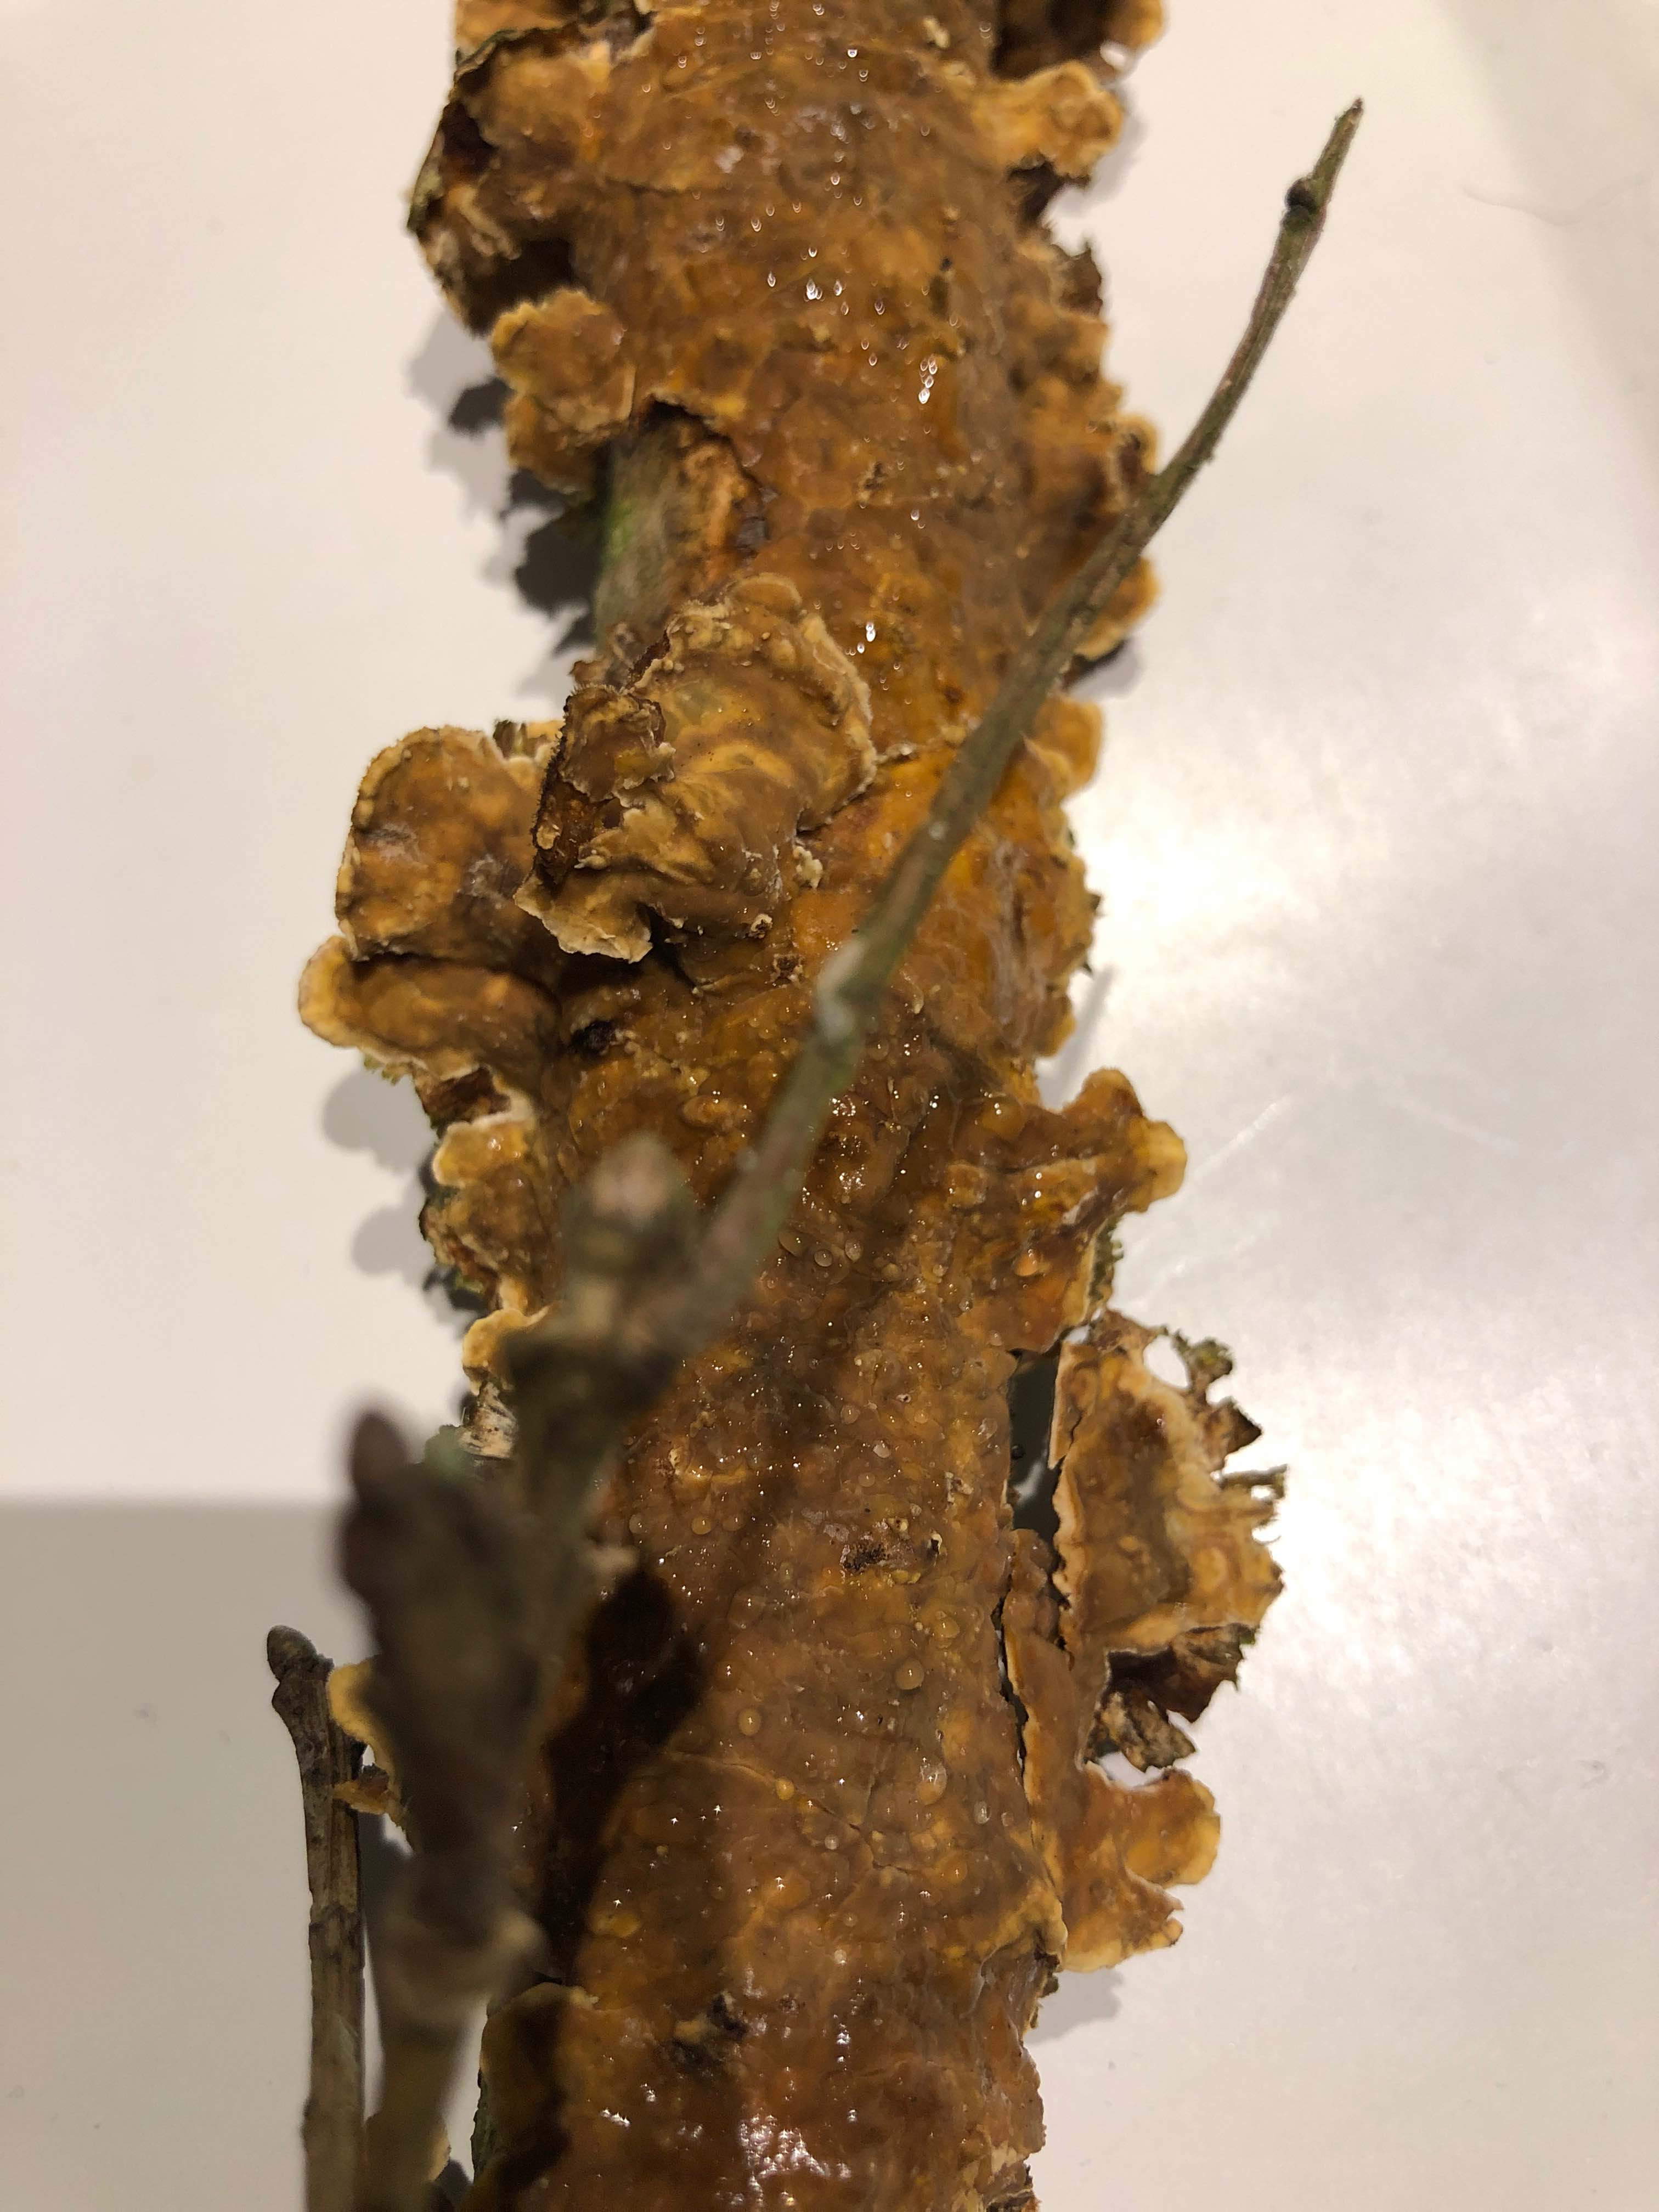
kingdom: Fungi
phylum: Basidiomycota
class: Agaricomycetes
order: Russulales
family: Stereaceae
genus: Stereum
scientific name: Stereum
